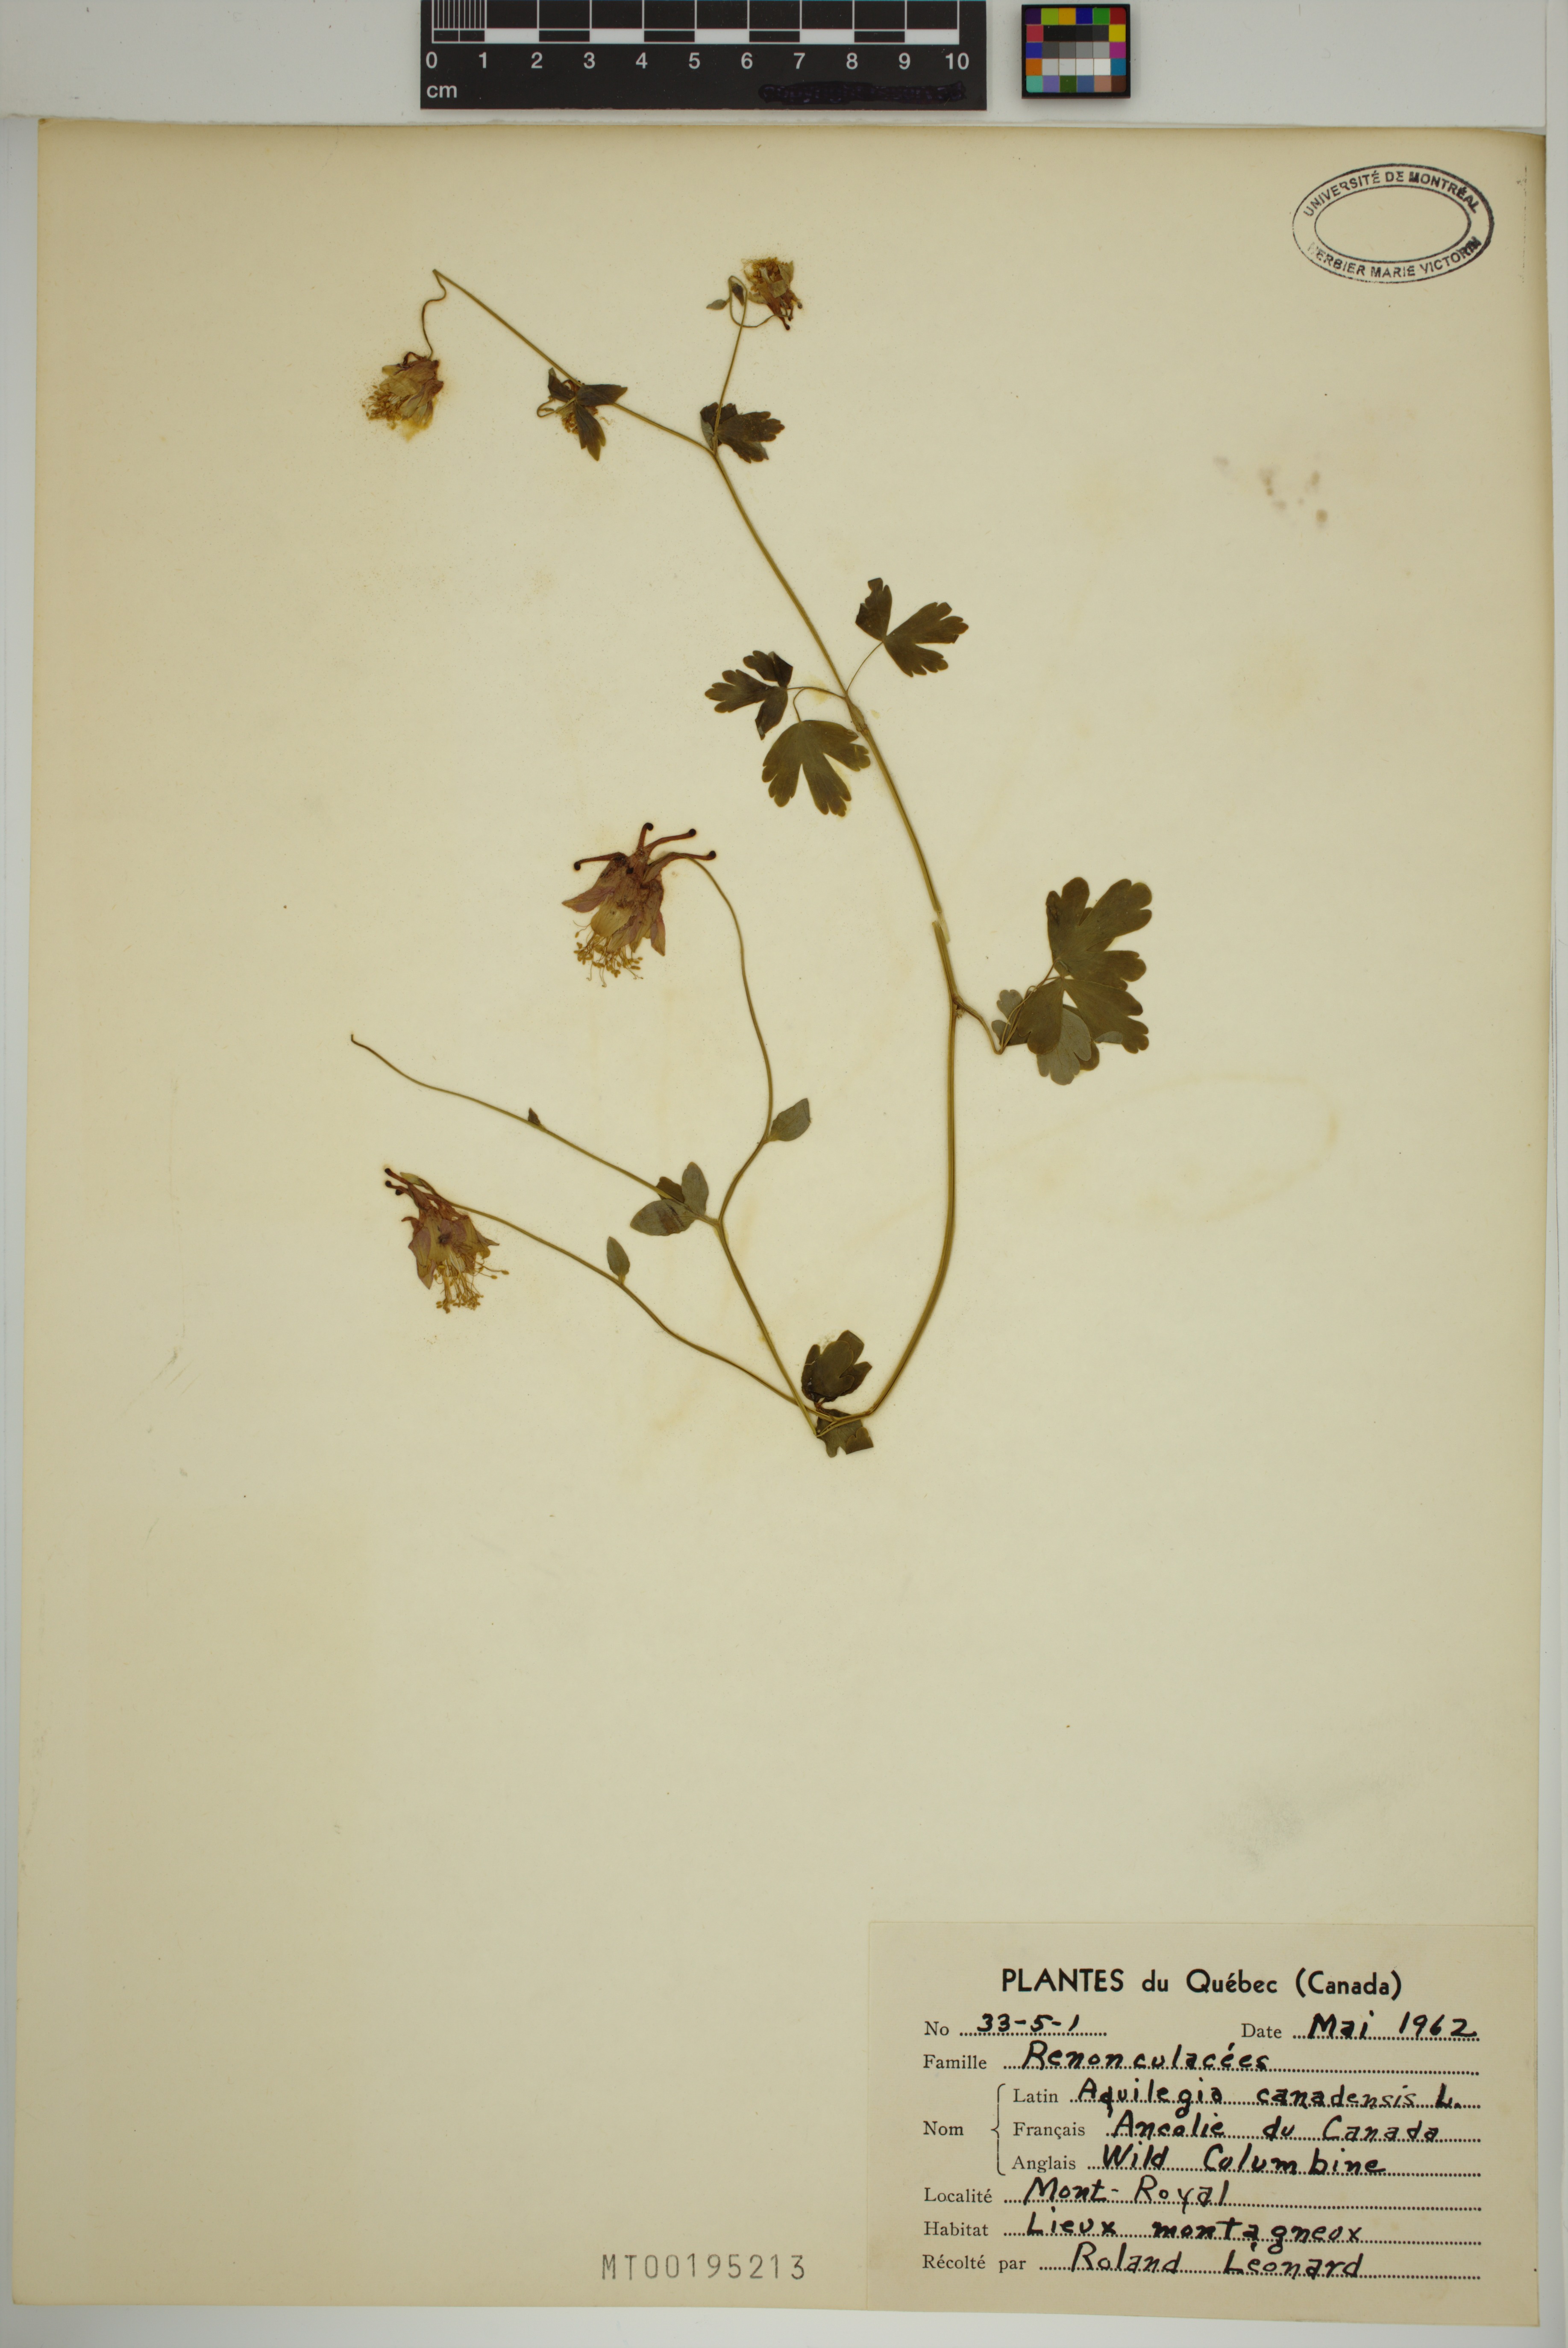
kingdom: Plantae
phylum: Tracheophyta
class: Magnoliopsida
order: Ranunculales
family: Ranunculaceae
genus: Aquilegia
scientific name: Aquilegia canadensis
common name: American columbine
